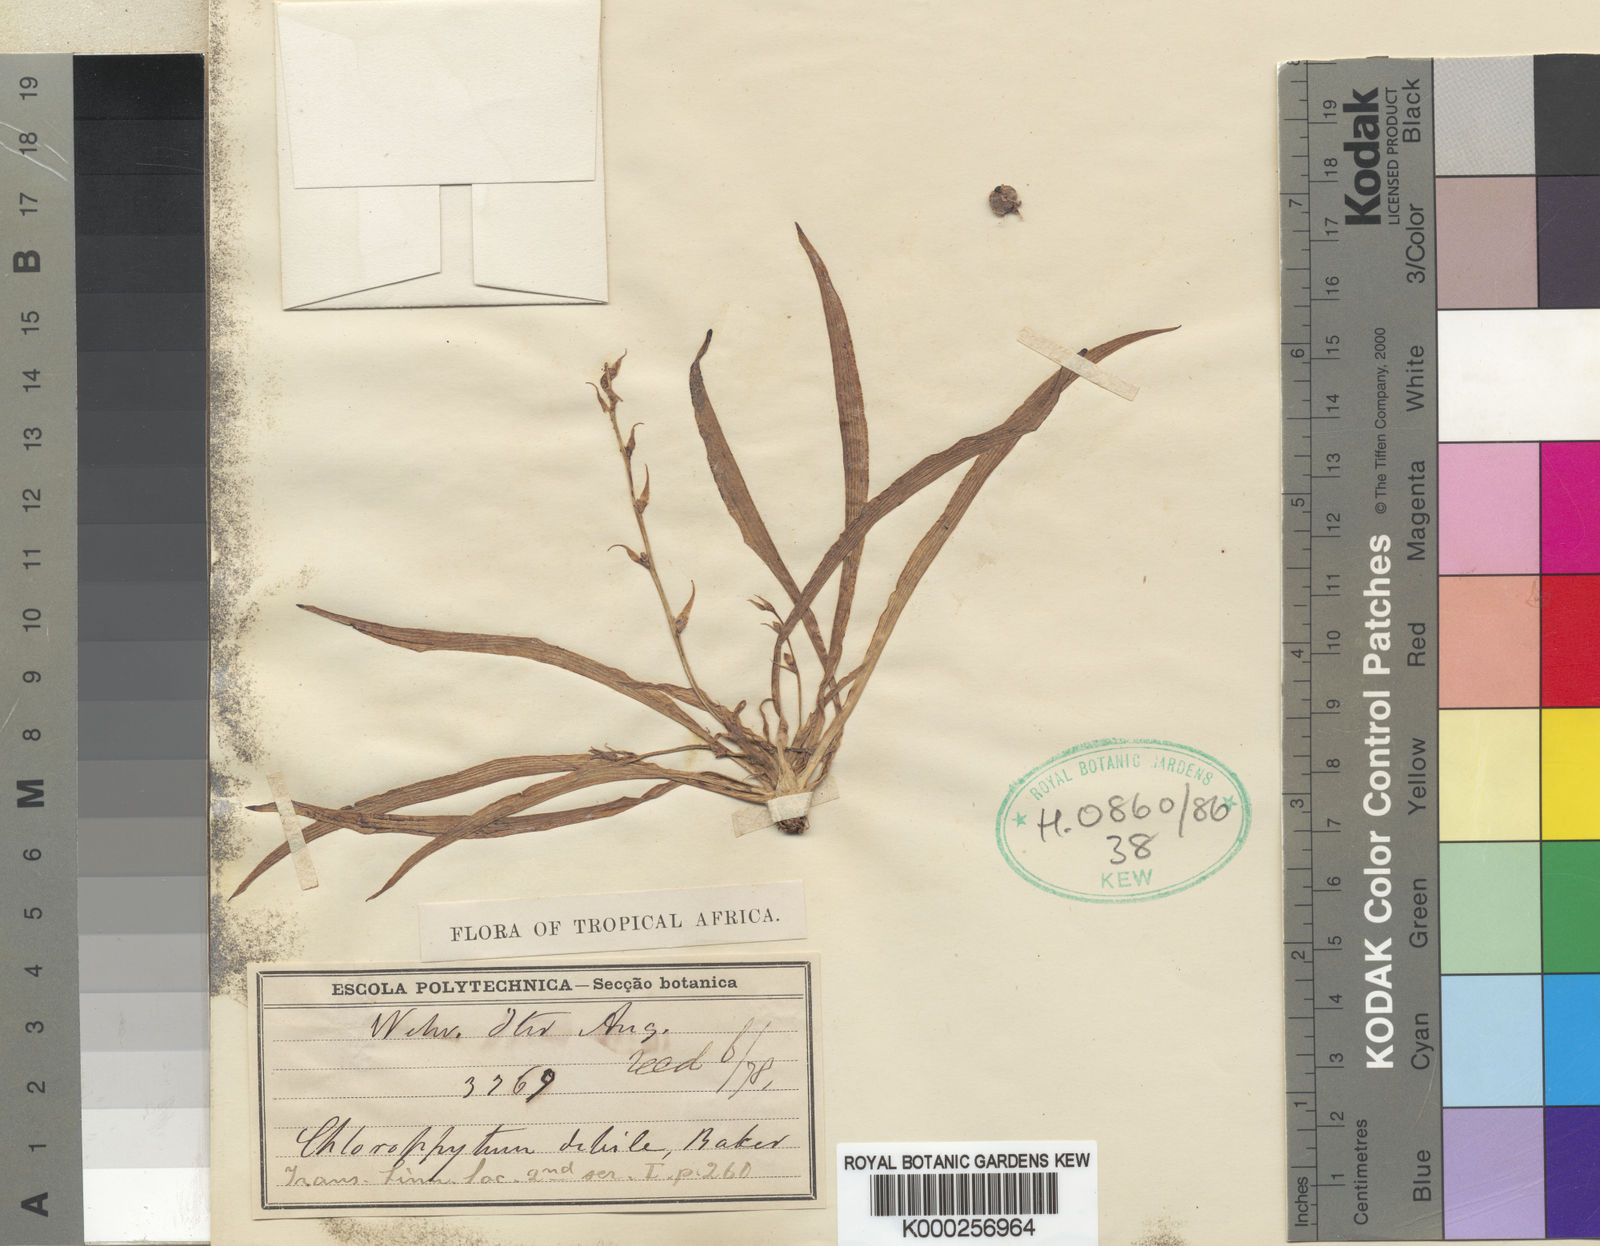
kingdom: Plantae
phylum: Tracheophyta
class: Liliopsida
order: Asparagales
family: Asparagaceae
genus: Chlorophytum
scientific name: Chlorophytum laxum
